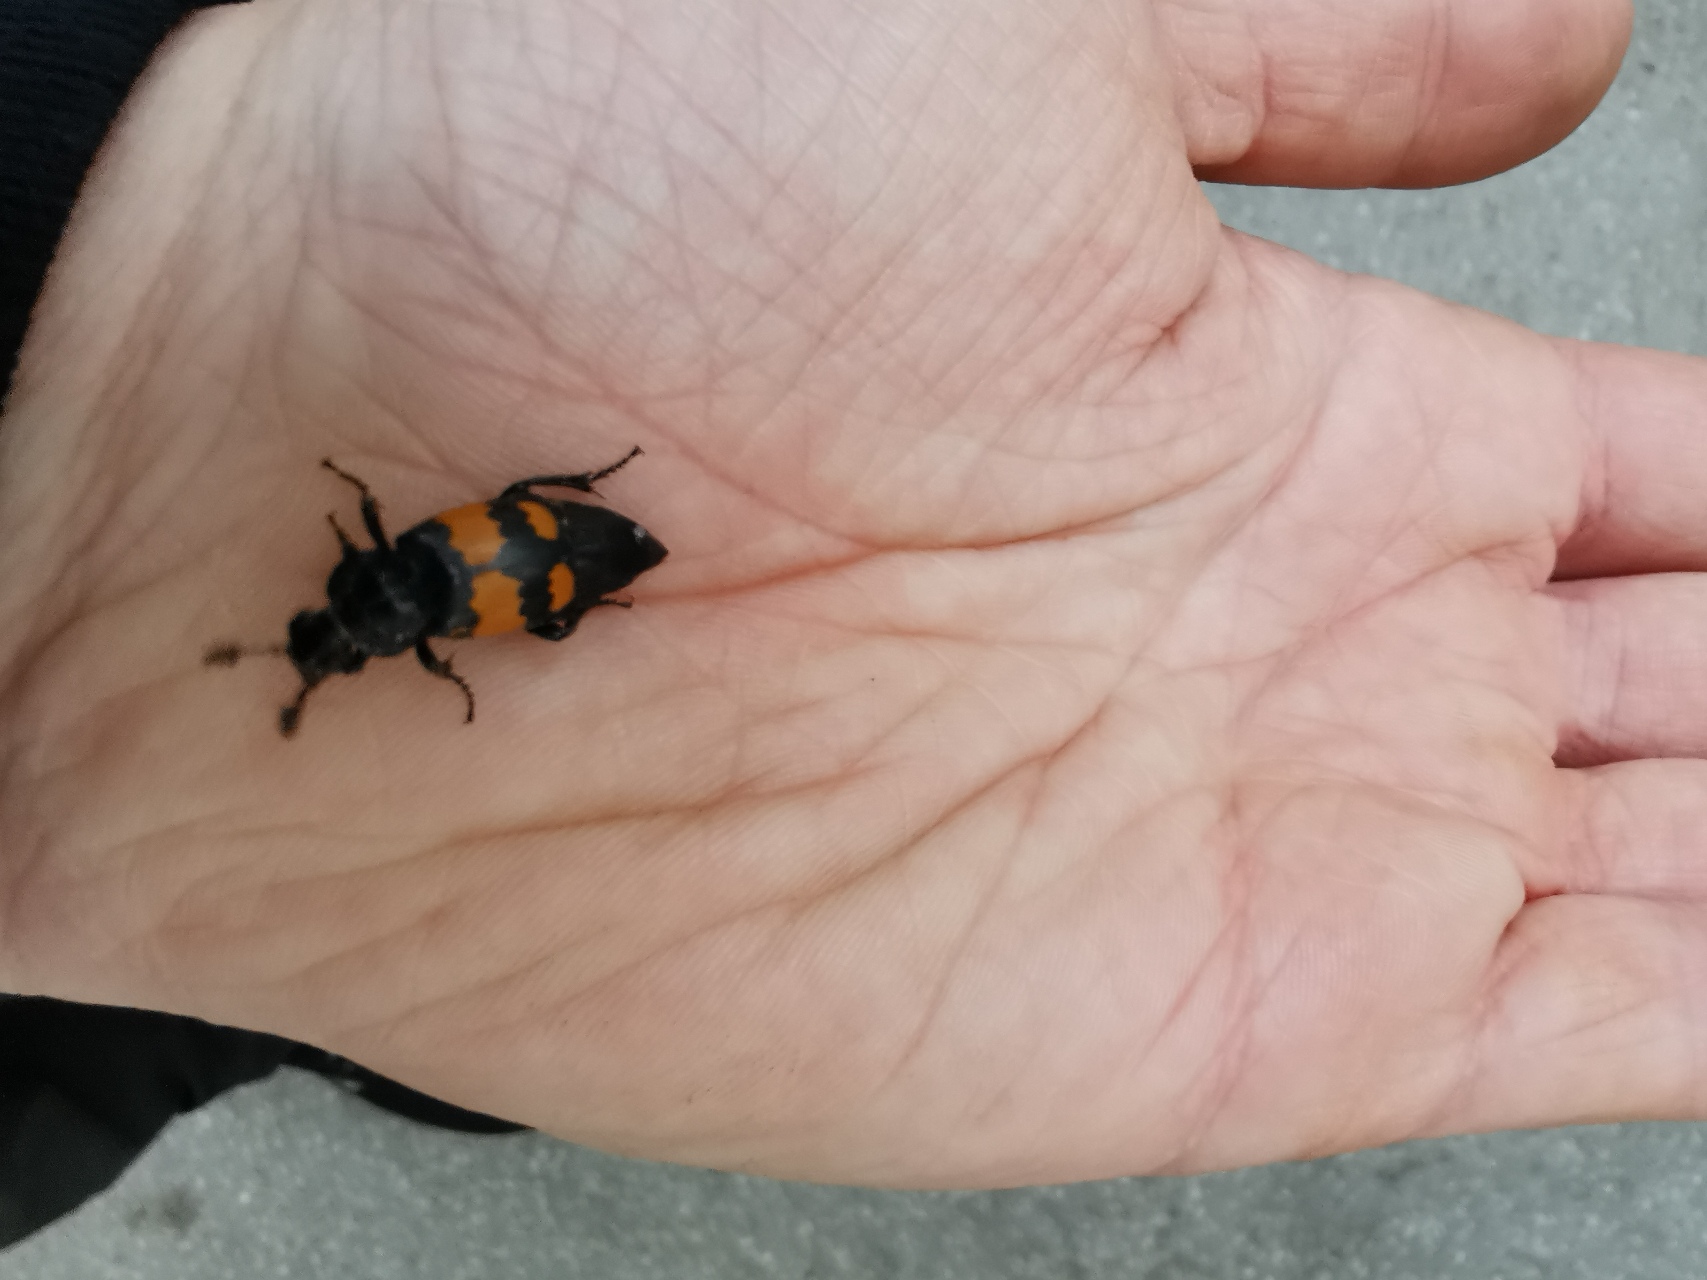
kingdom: Animalia
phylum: Arthropoda
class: Insecta
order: Coleoptera
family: Staphylinidae
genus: Nicrophorus
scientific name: Nicrophorus vespilloides
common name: Sortkøllet ådselgraver
